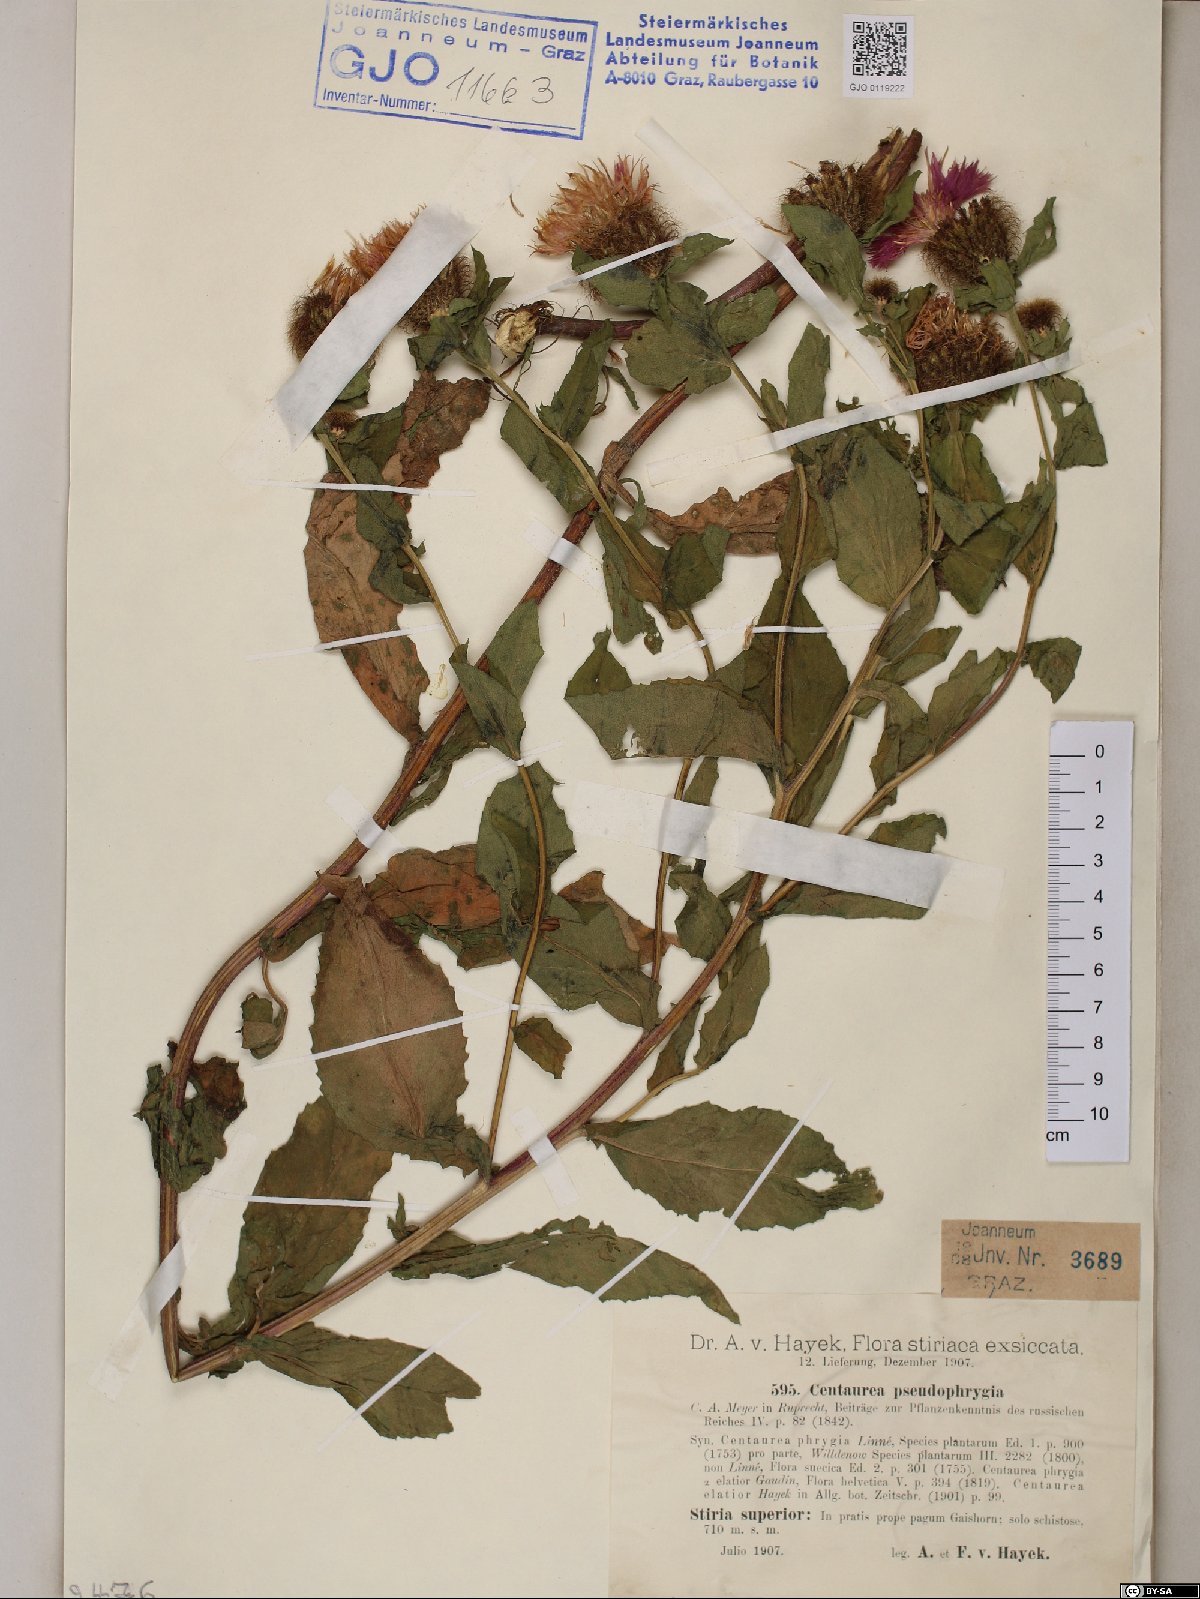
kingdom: Plantae
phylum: Tracheophyta
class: Magnoliopsida
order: Asterales
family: Asteraceae
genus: Centaurea
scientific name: Centaurea pseudophrygia
